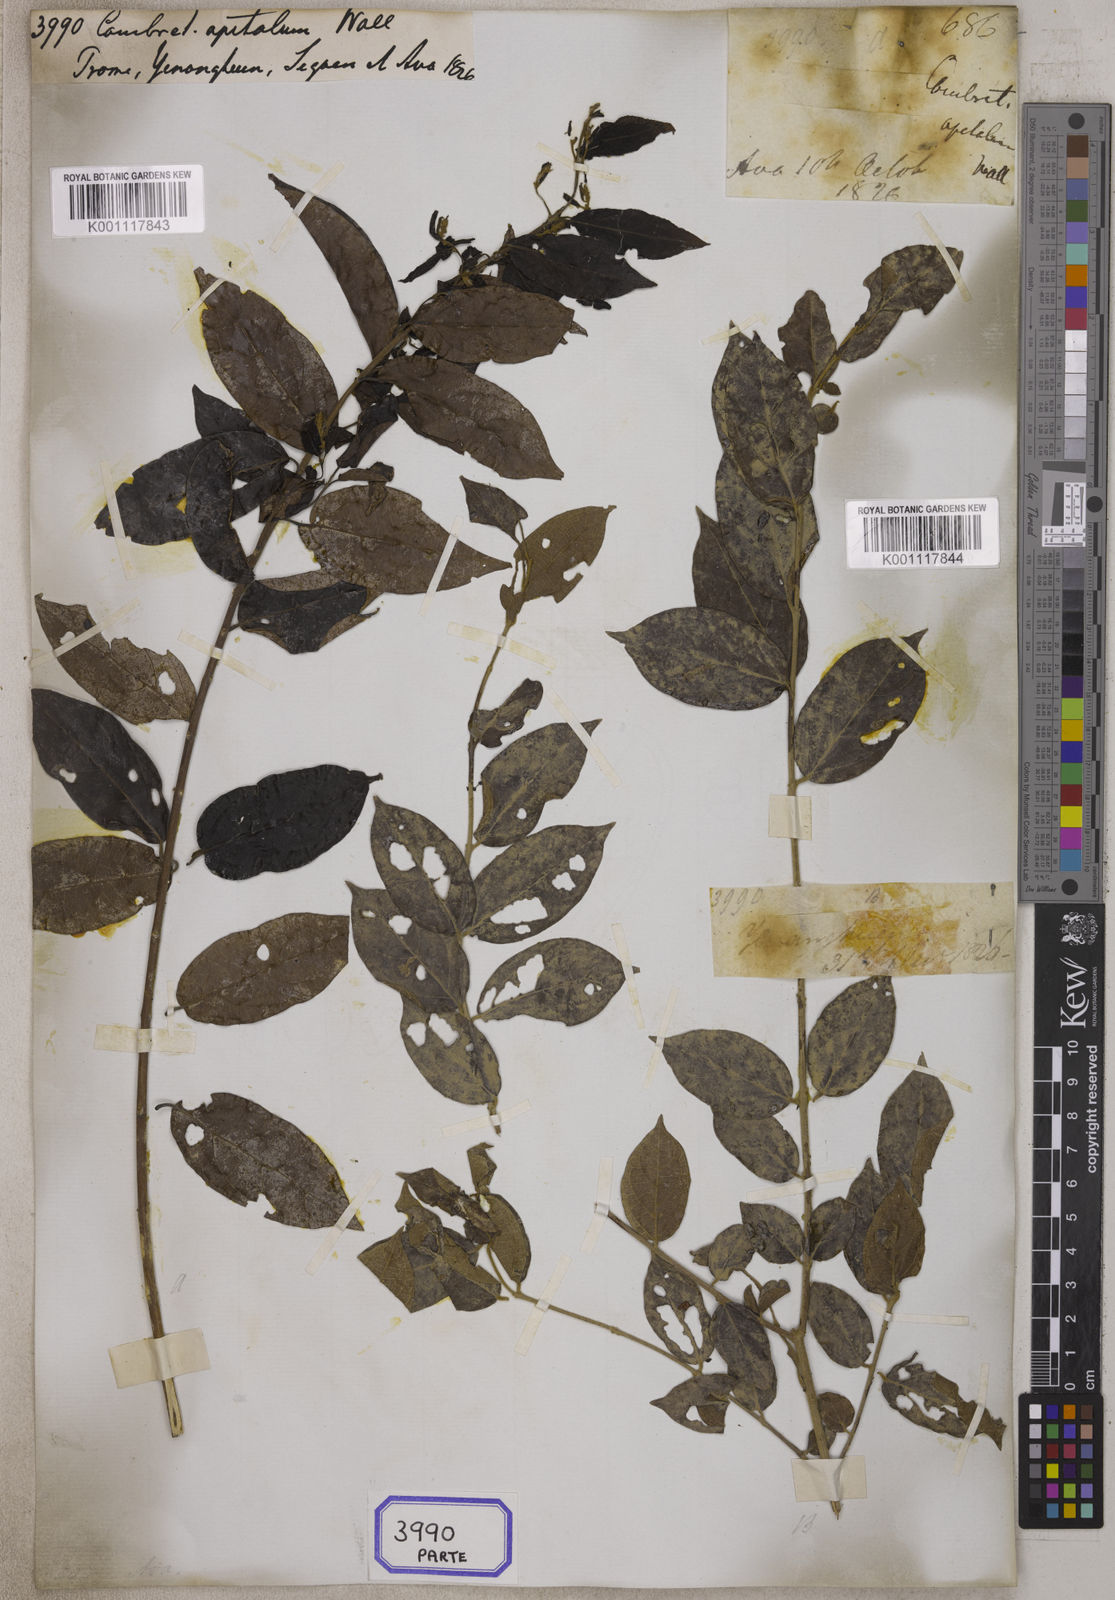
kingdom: Plantae
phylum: Tracheophyta
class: Magnoliopsida
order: Myrtales
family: Combretaceae
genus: Combretum
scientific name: Combretum
